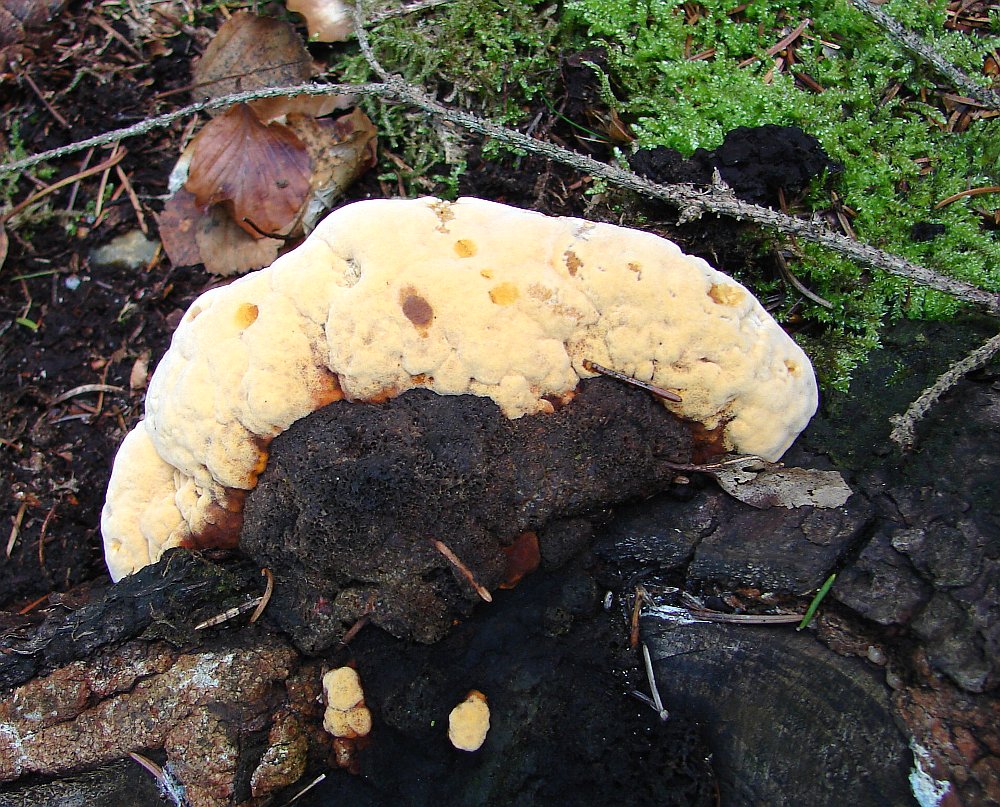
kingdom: Fungi
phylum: Basidiomycota
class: Agaricomycetes
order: Gloeophyllales
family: Gloeophyllaceae
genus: Gloeophyllum
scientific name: Gloeophyllum odoratum
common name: duftende korkhat
